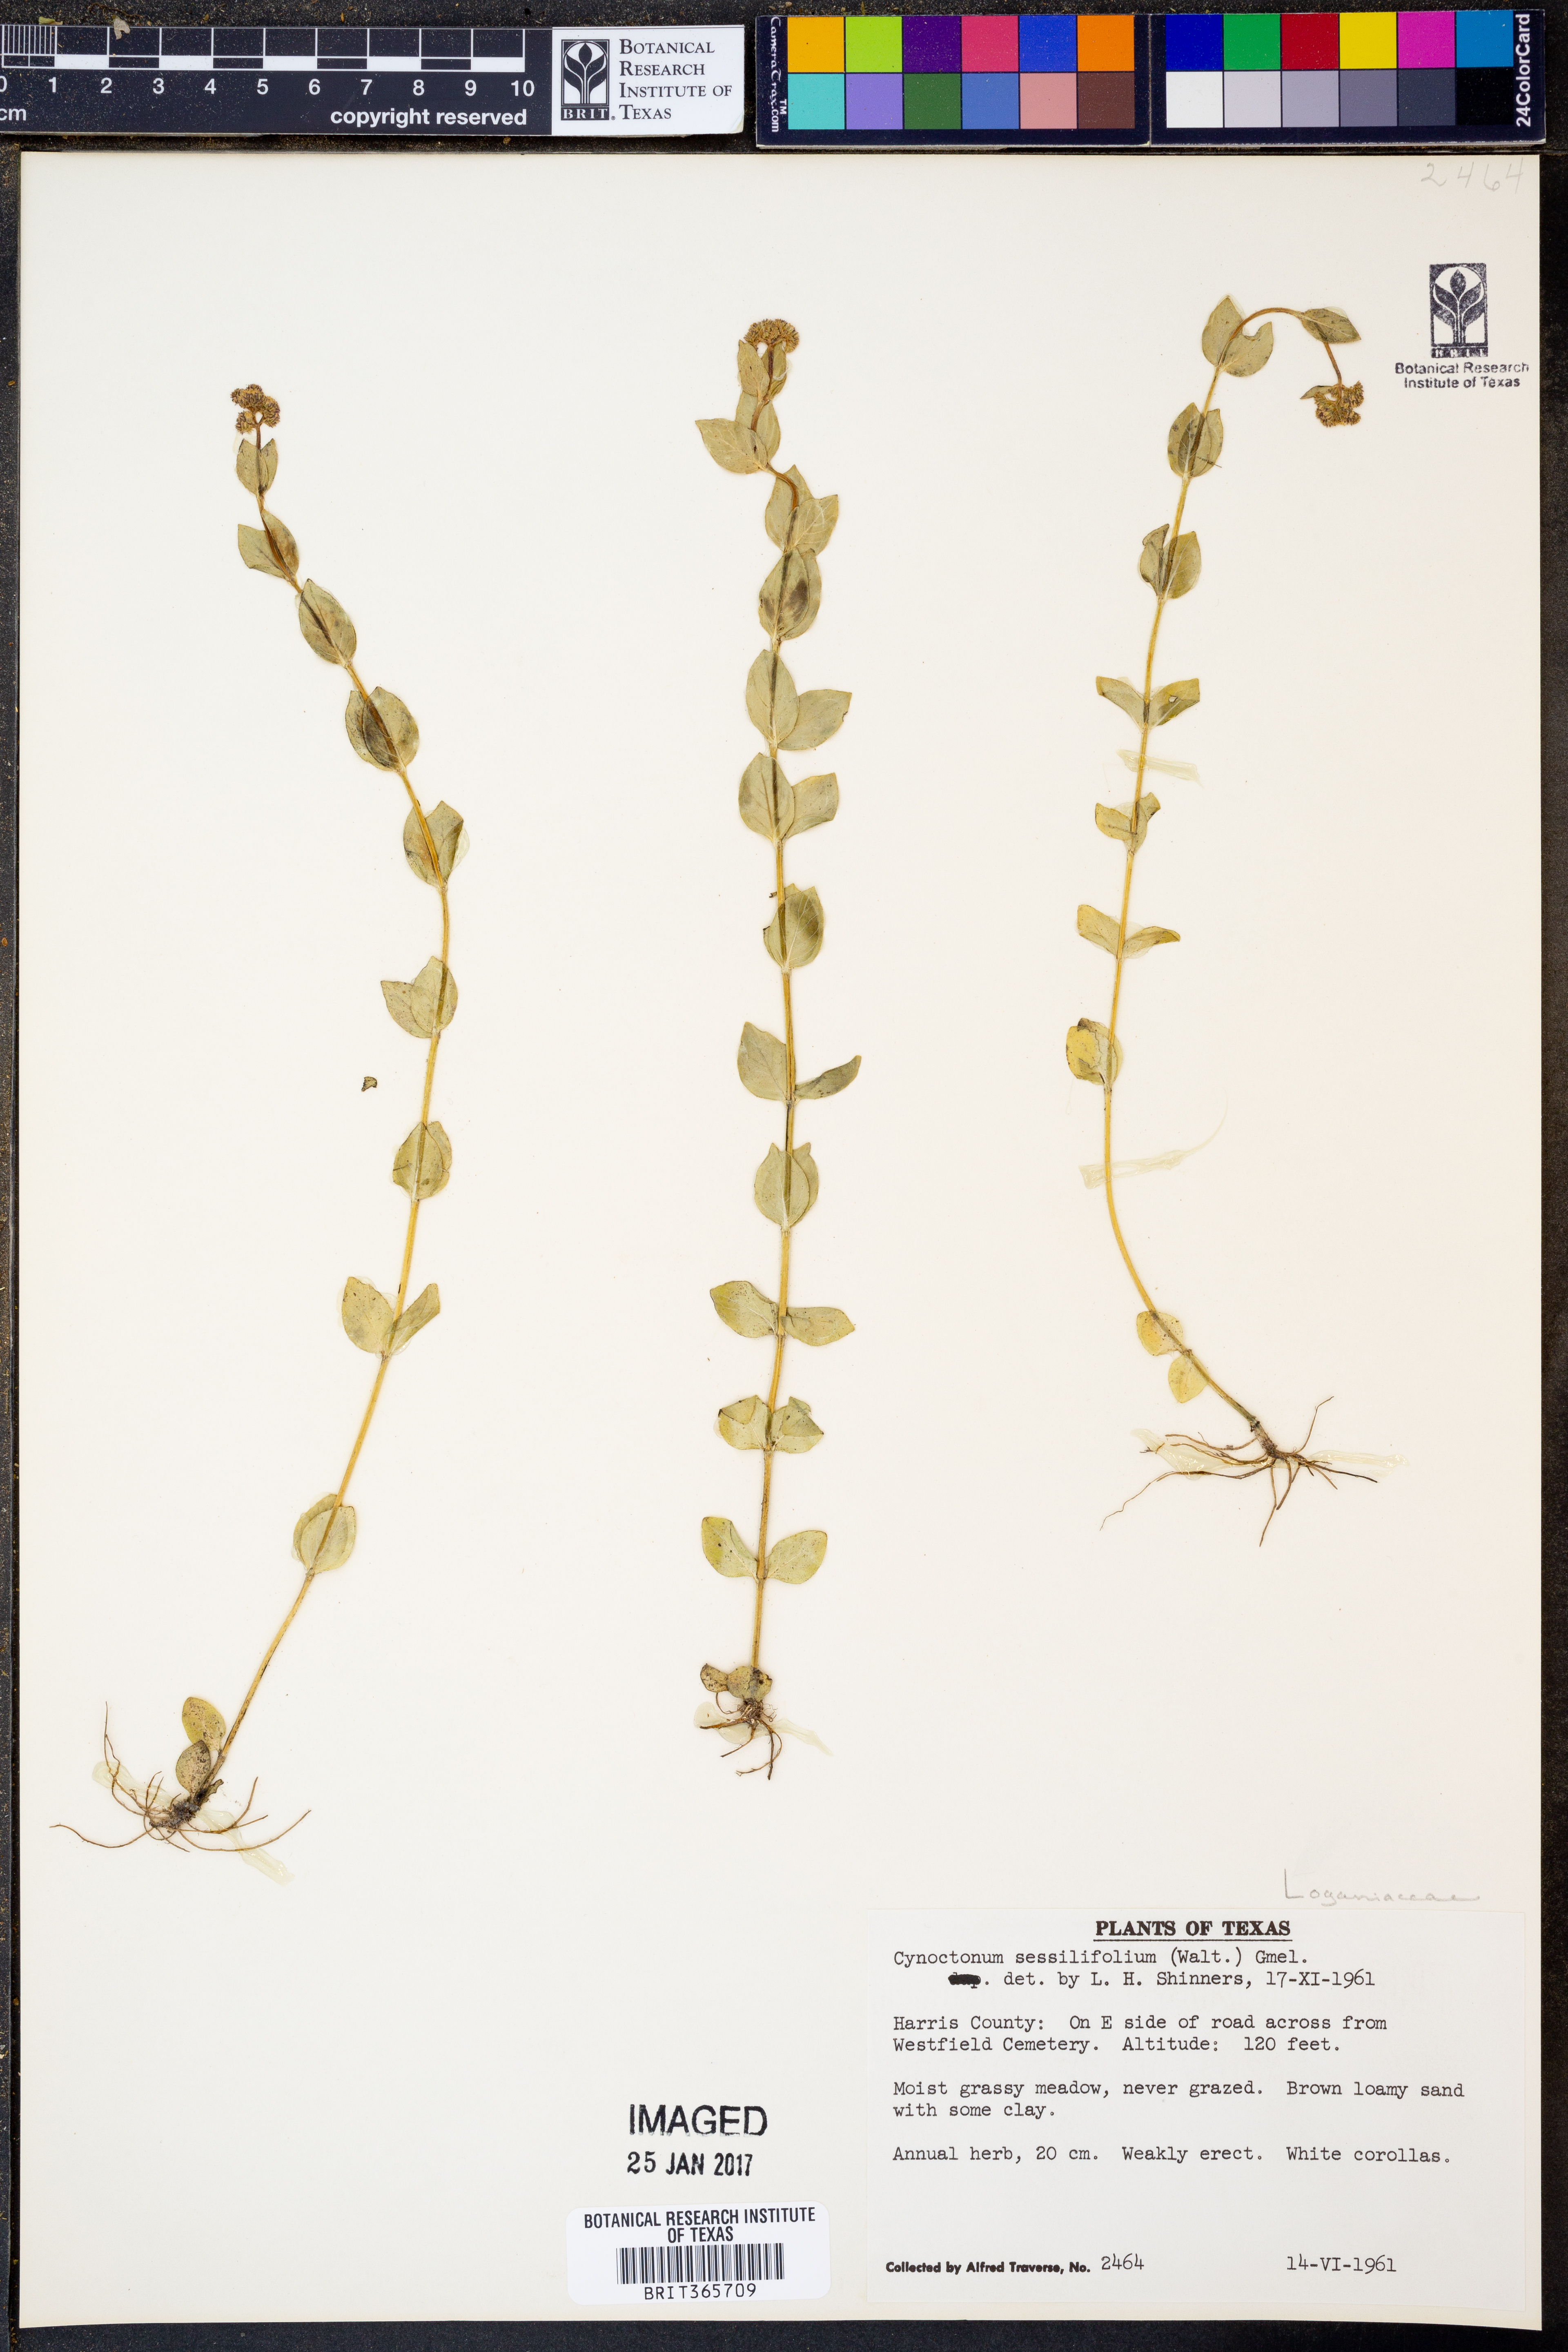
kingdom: Plantae
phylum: Tracheophyta
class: Magnoliopsida
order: Gentianales
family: Loganiaceae
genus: Mitreola
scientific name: Mitreola sessilifolia
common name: Swamp hornpod
